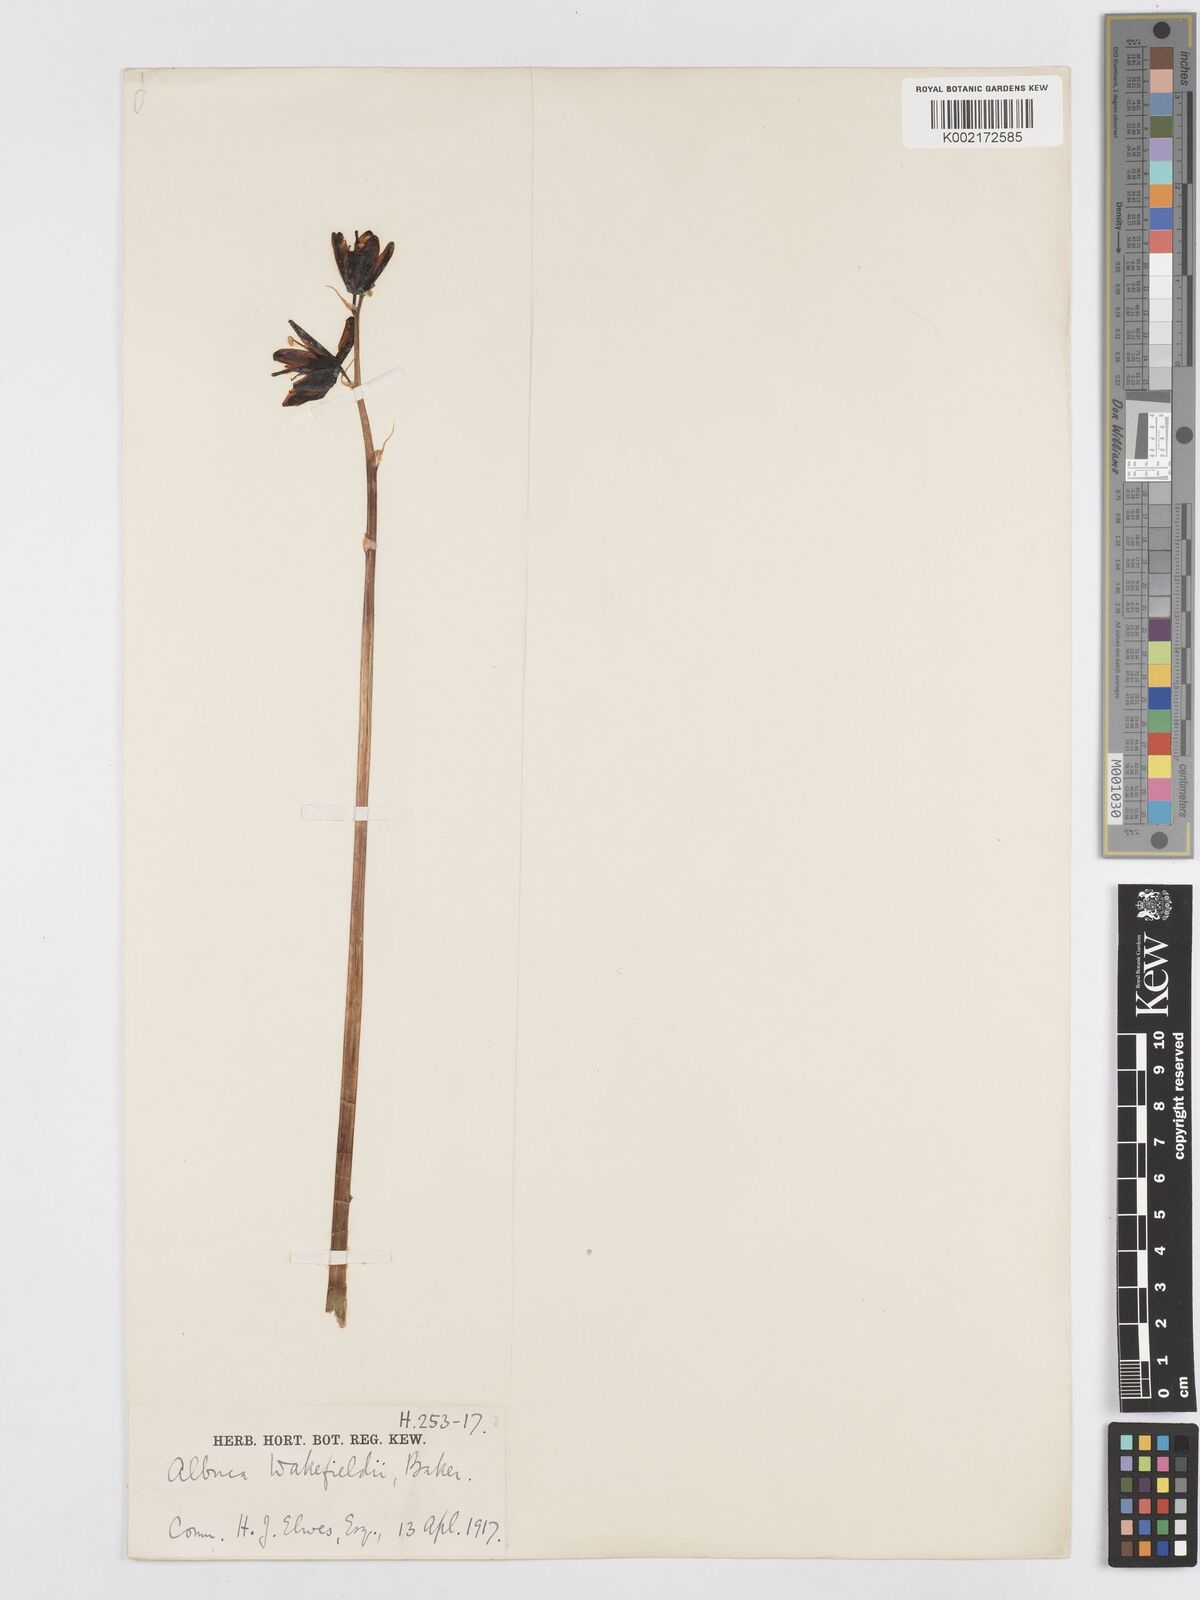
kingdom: Plantae
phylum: Tracheophyta
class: Liliopsida
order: Asparagales
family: Asparagaceae
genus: Albuca
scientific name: Albuca abyssinica
